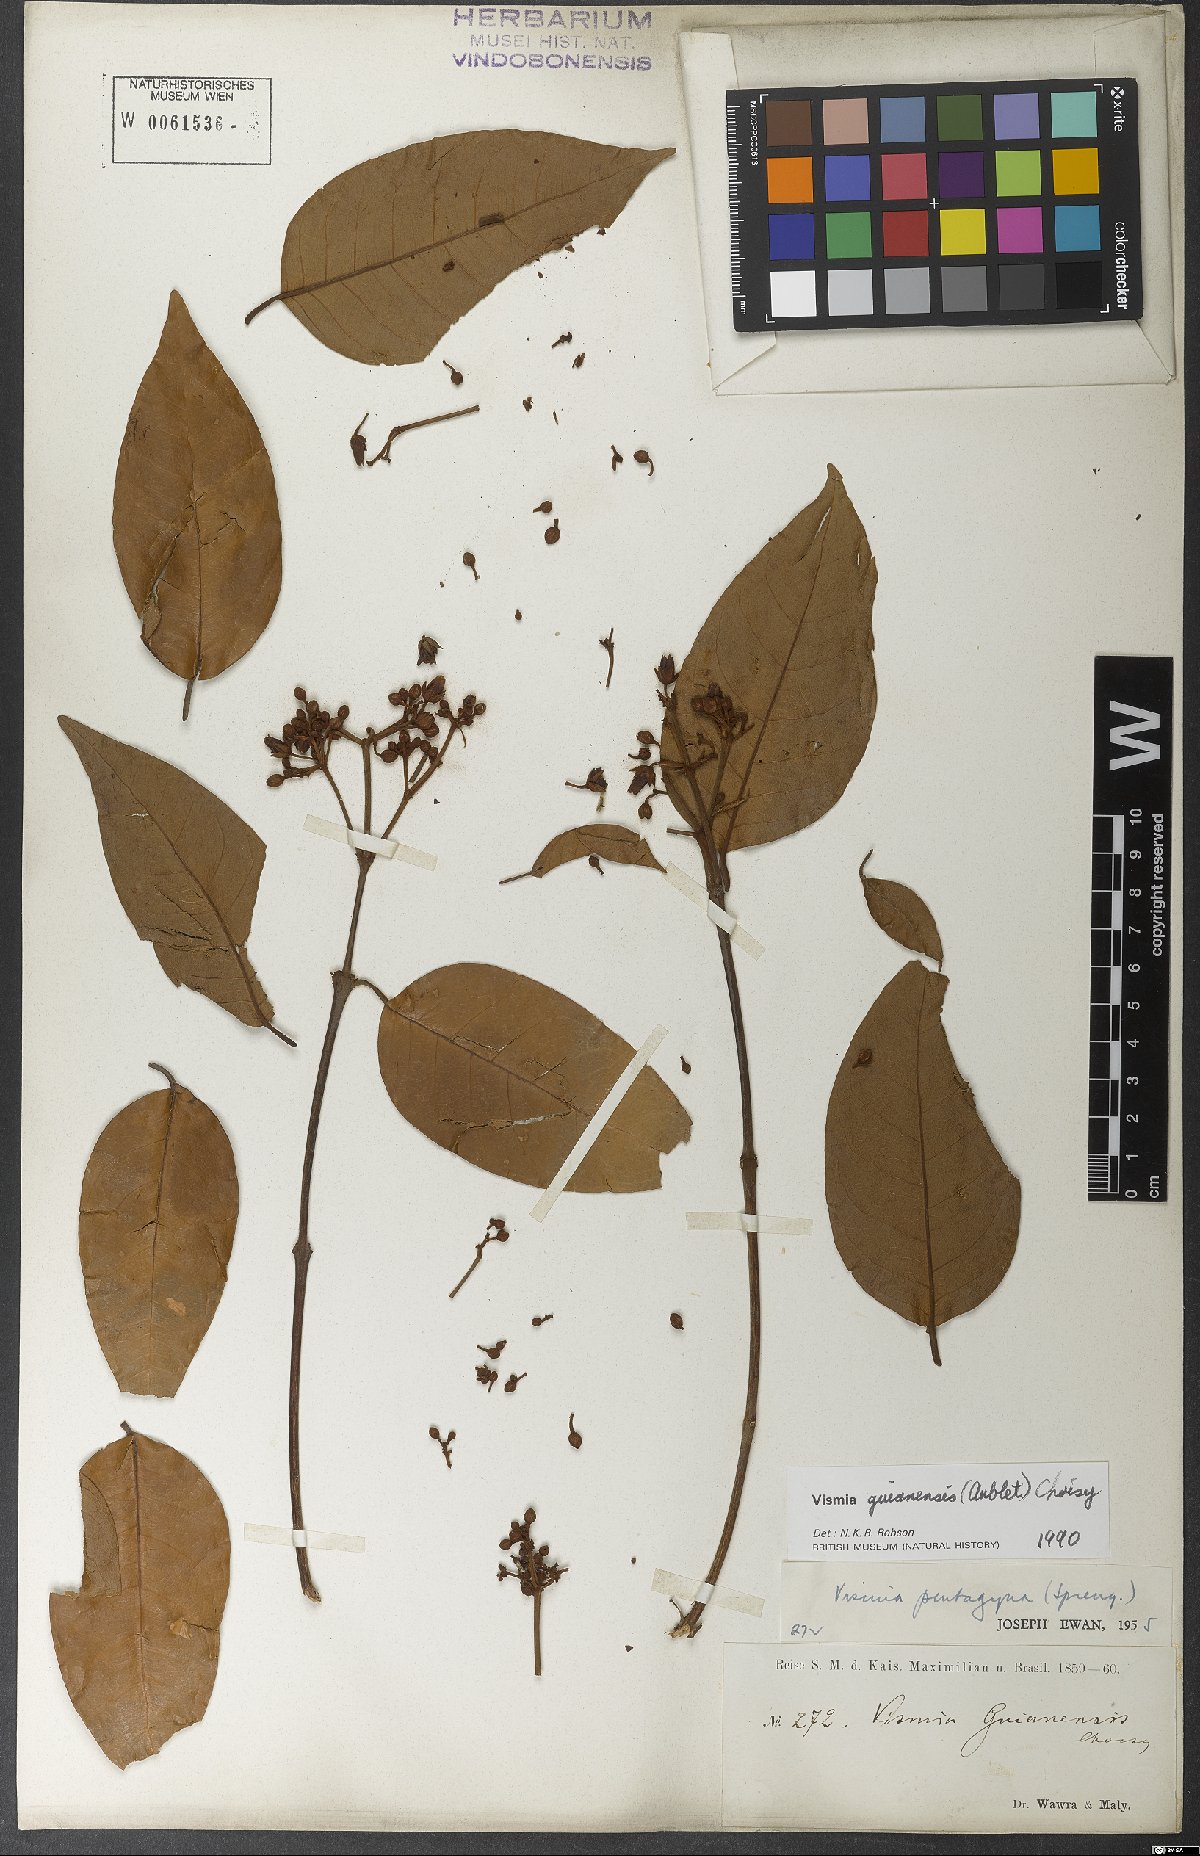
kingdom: Plantae
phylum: Tracheophyta
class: Magnoliopsida
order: Malpighiales
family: Hypericaceae
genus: Vismia
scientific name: Vismia guianensis
